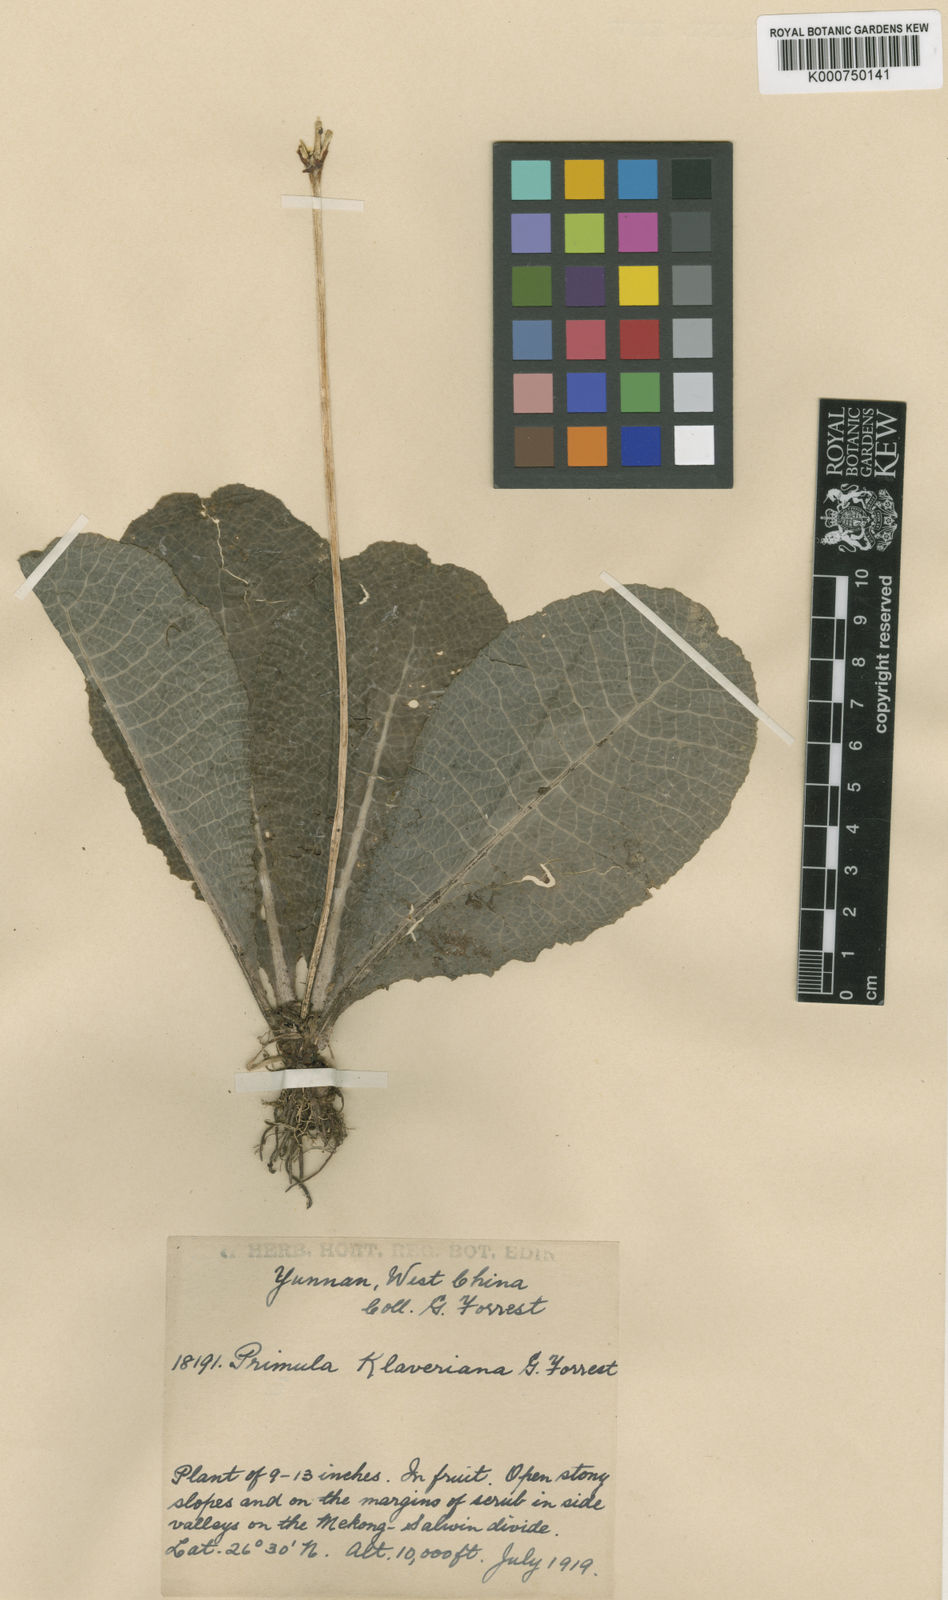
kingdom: Plantae
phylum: Tracheophyta
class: Magnoliopsida
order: Ericales
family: Primulaceae
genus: Primula
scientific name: Primula klaveriana
